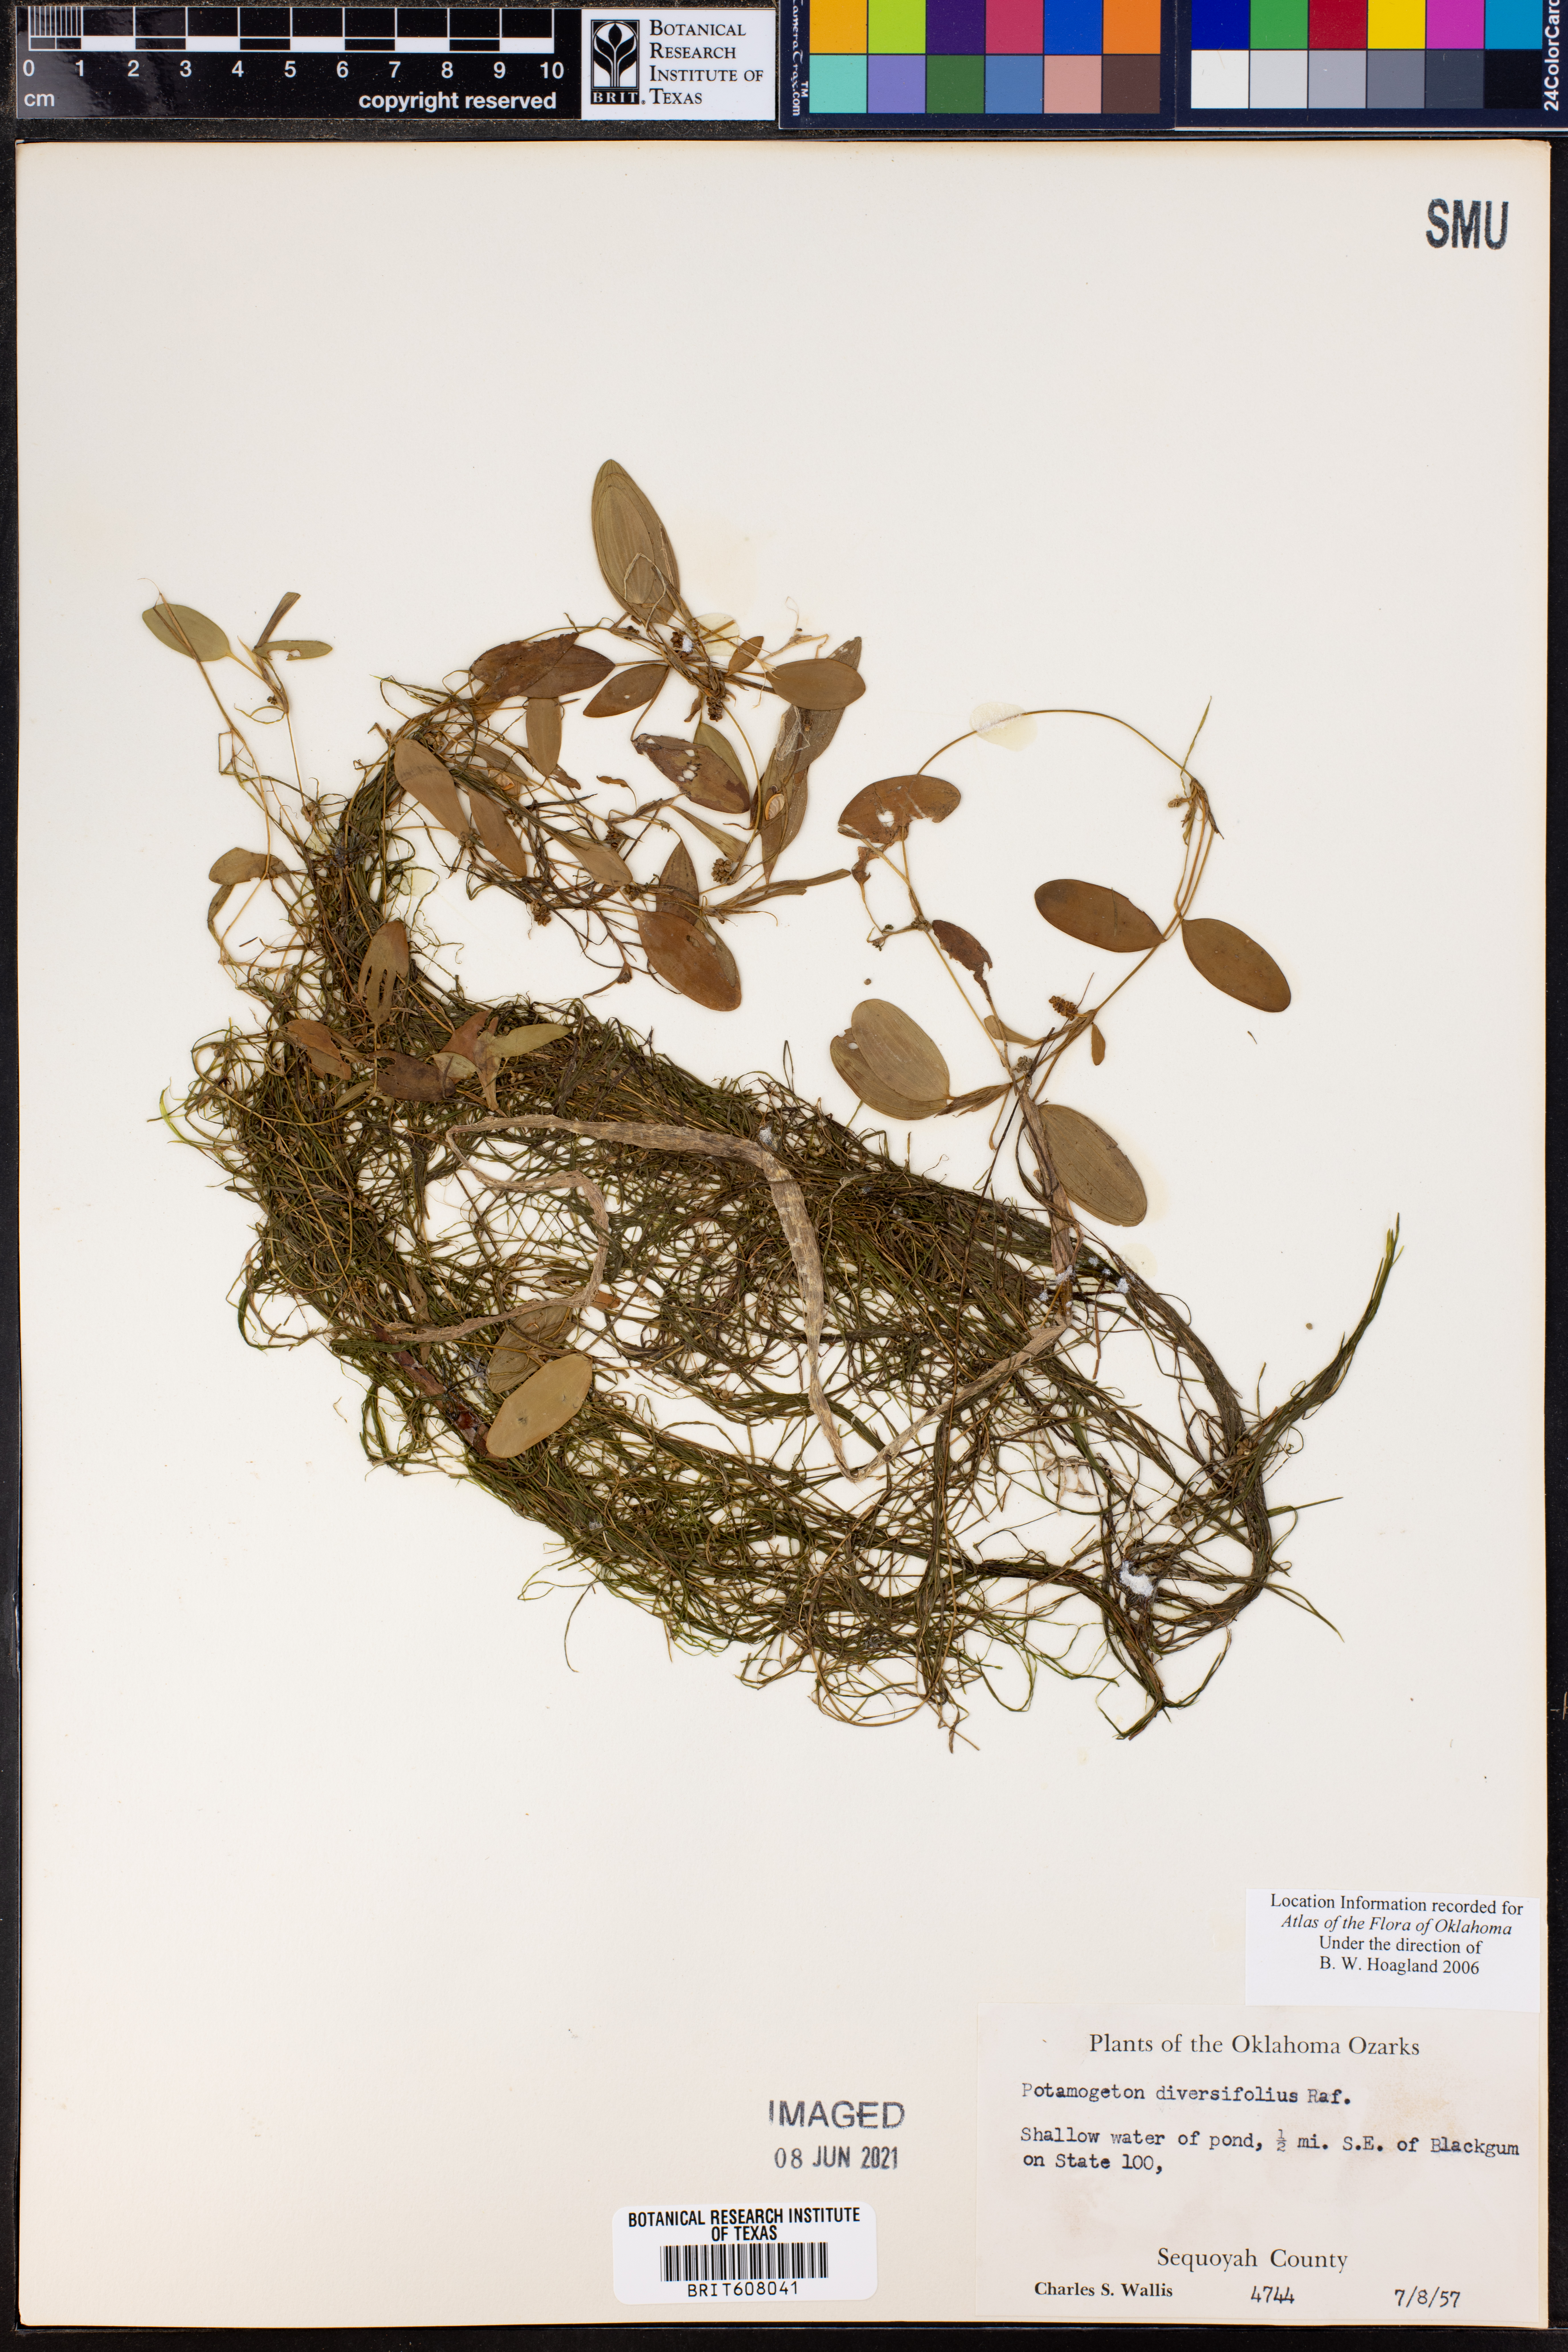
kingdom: Plantae
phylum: Tracheophyta
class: Liliopsida
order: Alismatales
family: Potamogetonaceae
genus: Potamogeton
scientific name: Potamogeton diversifolius
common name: Water-thread pondweed
